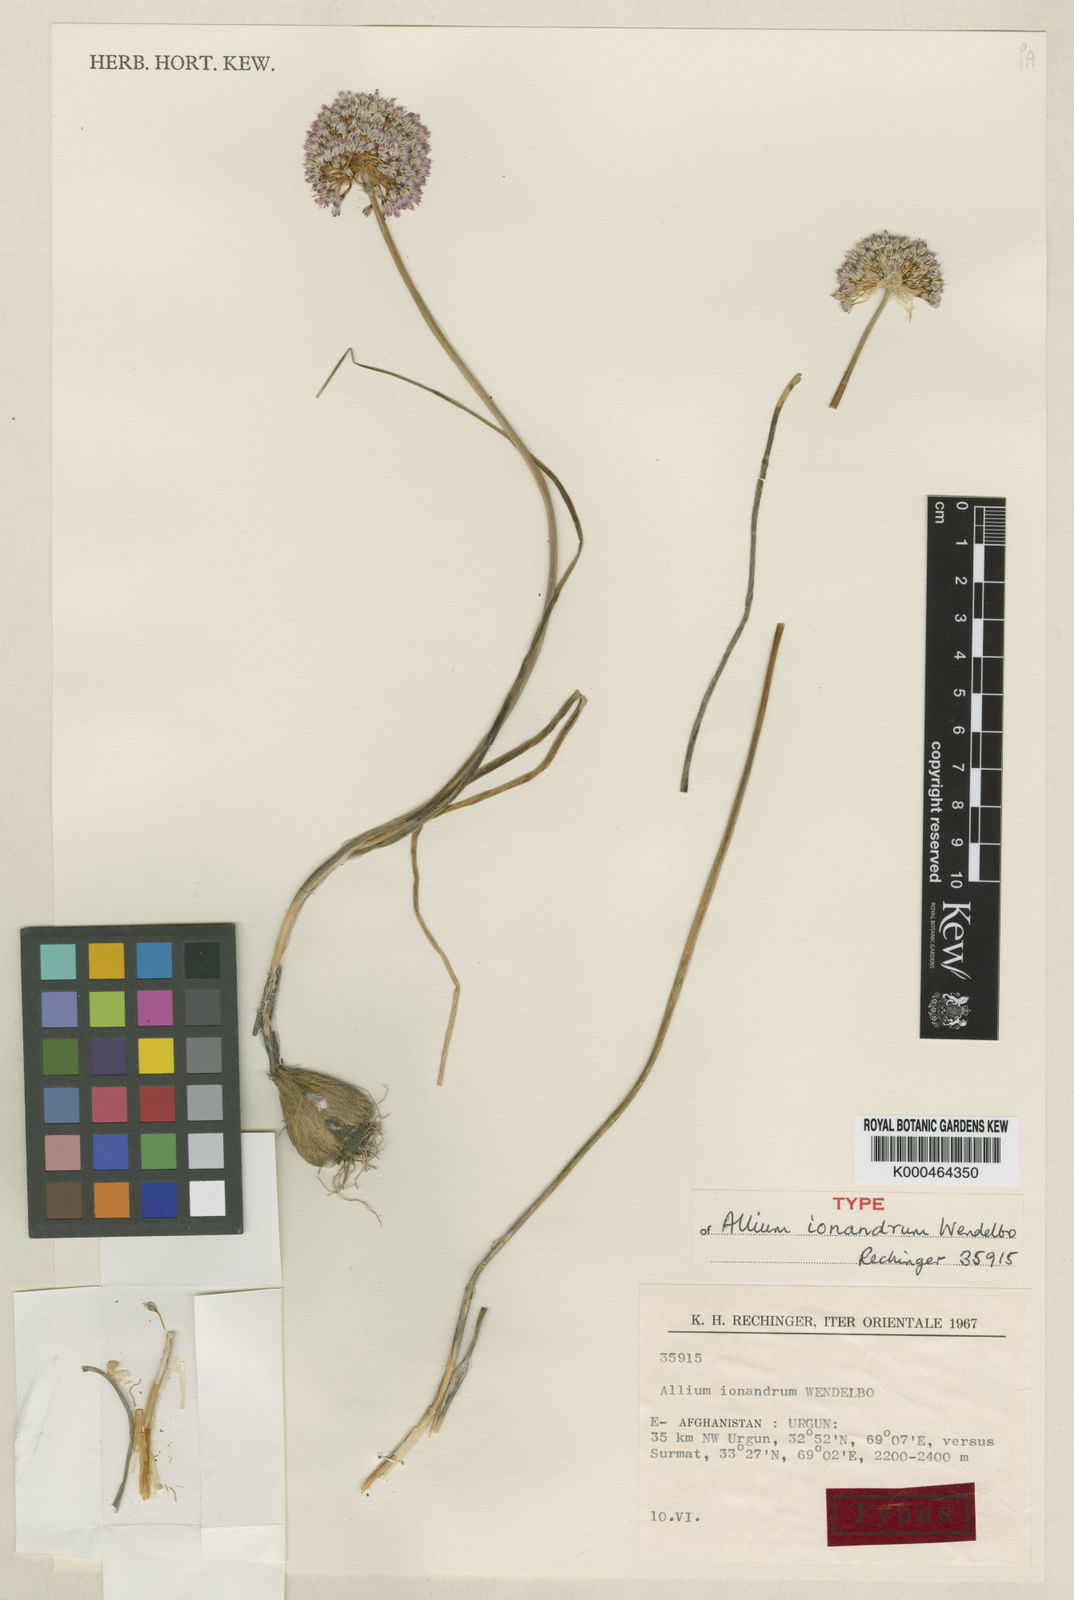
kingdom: Plantae
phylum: Tracheophyta
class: Liliopsida
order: Asparagales
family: Amaryllidaceae
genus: Allium
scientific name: Allium ionandrum
